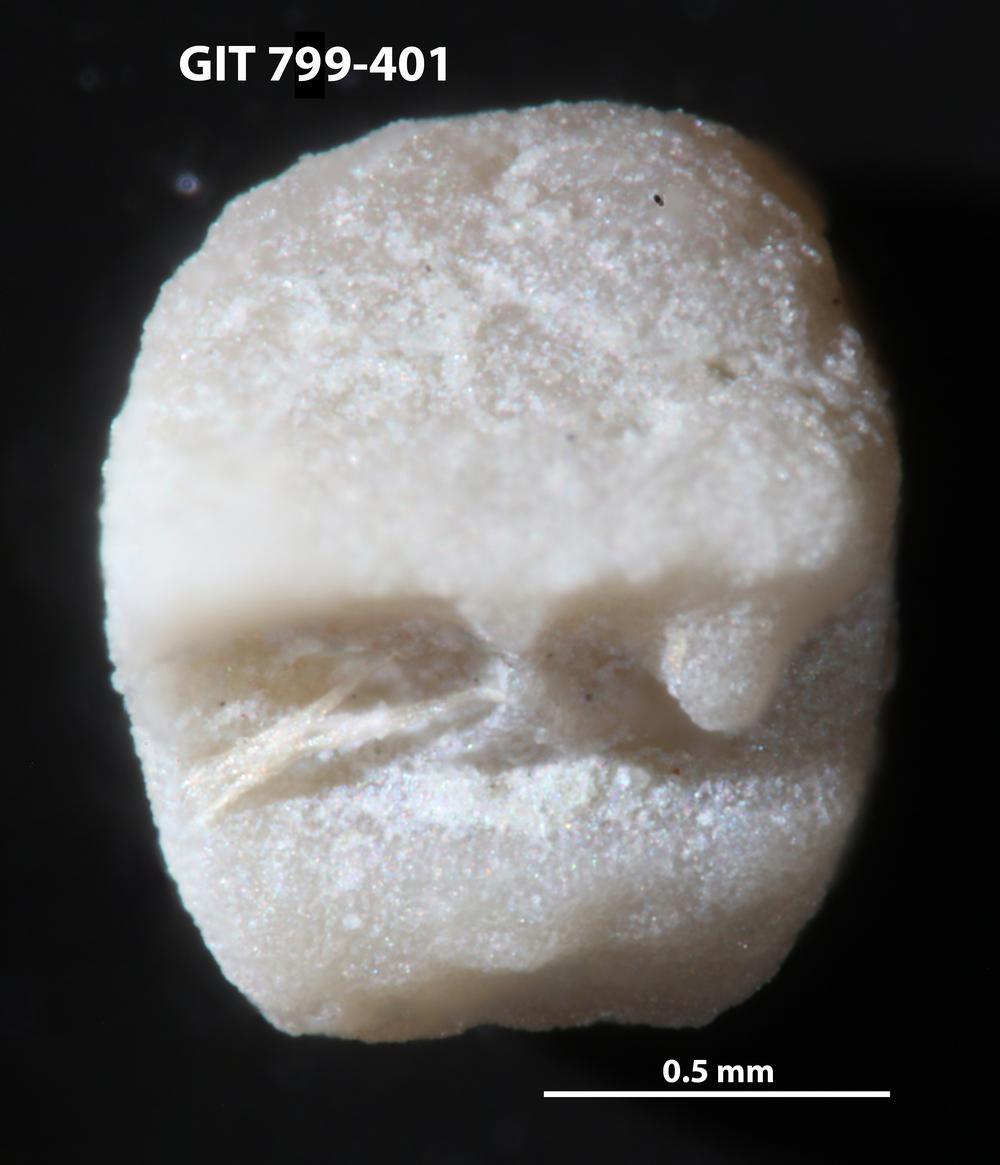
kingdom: Animalia
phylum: Echinodermata
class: Crinoidea
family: Cyclocystoididae
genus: Polytryphocycloides
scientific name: Polytryphocycloides Cyclocystoides lindstroemi
